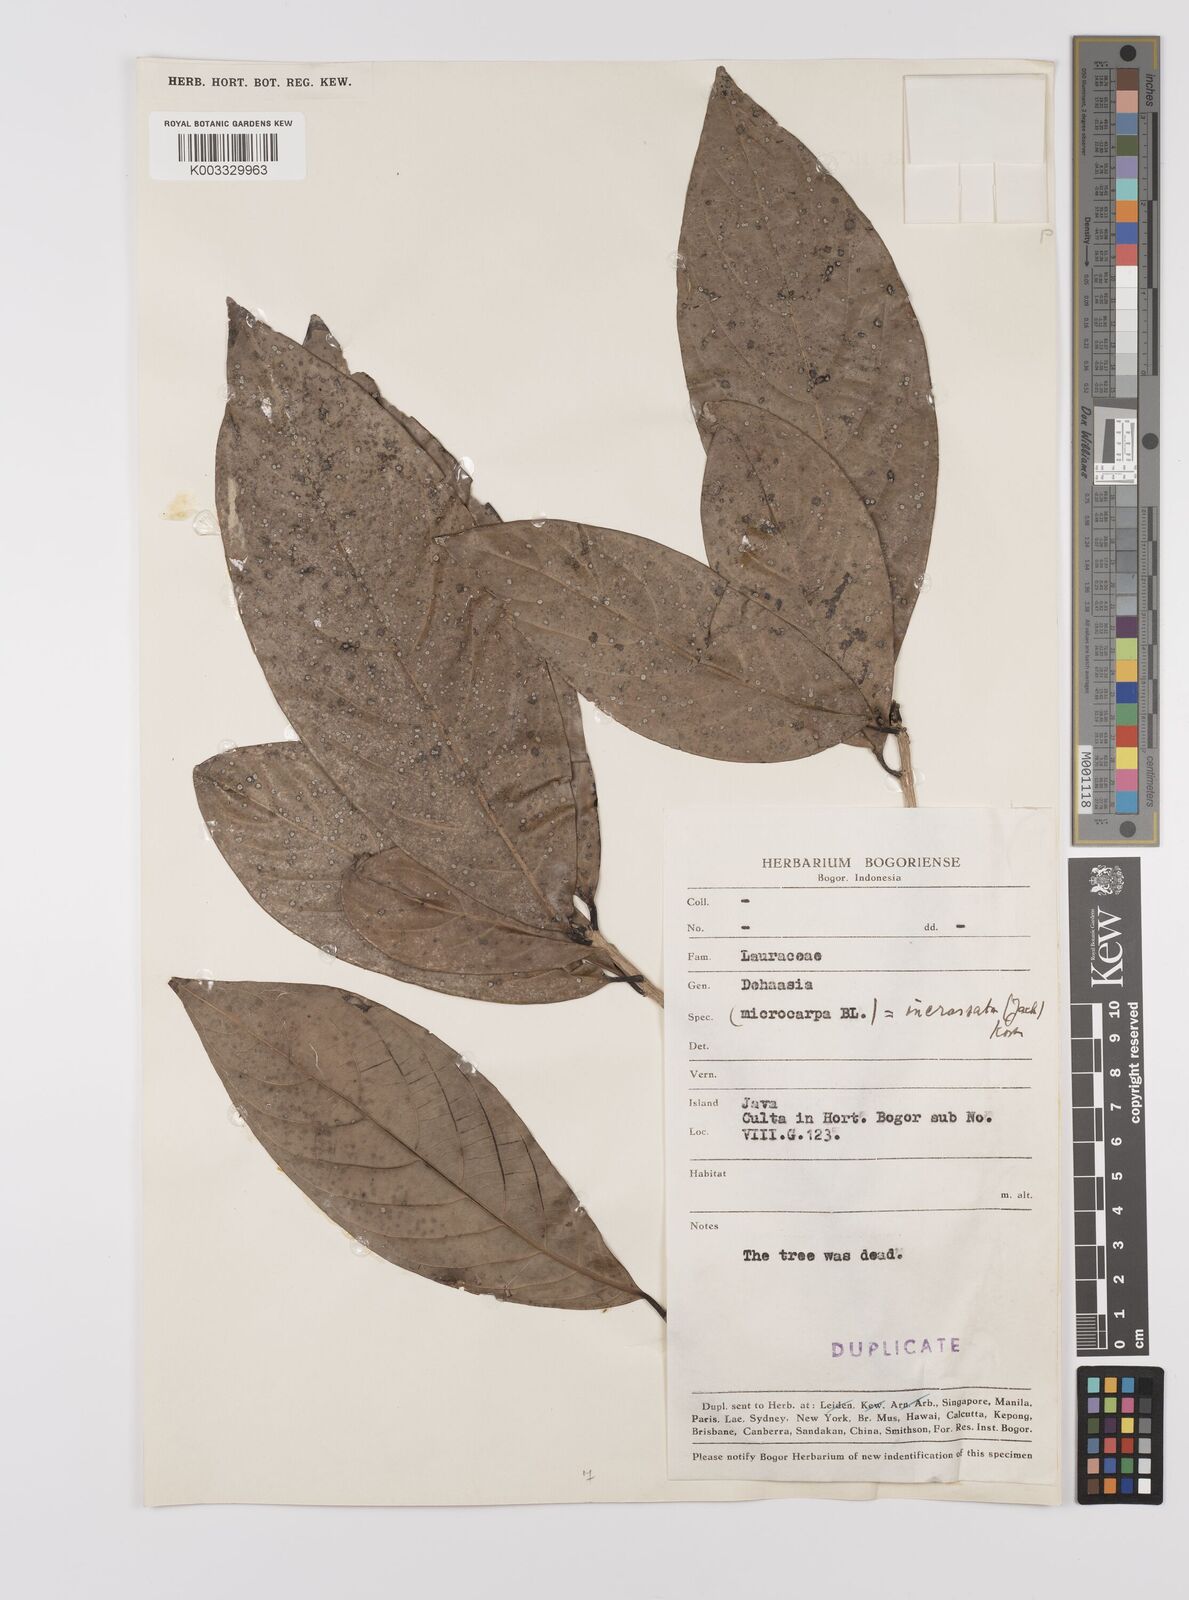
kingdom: Plantae
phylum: Tracheophyta
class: Magnoliopsida
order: Laurales
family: Lauraceae
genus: Dehaasia
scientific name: Dehaasia incrassata
